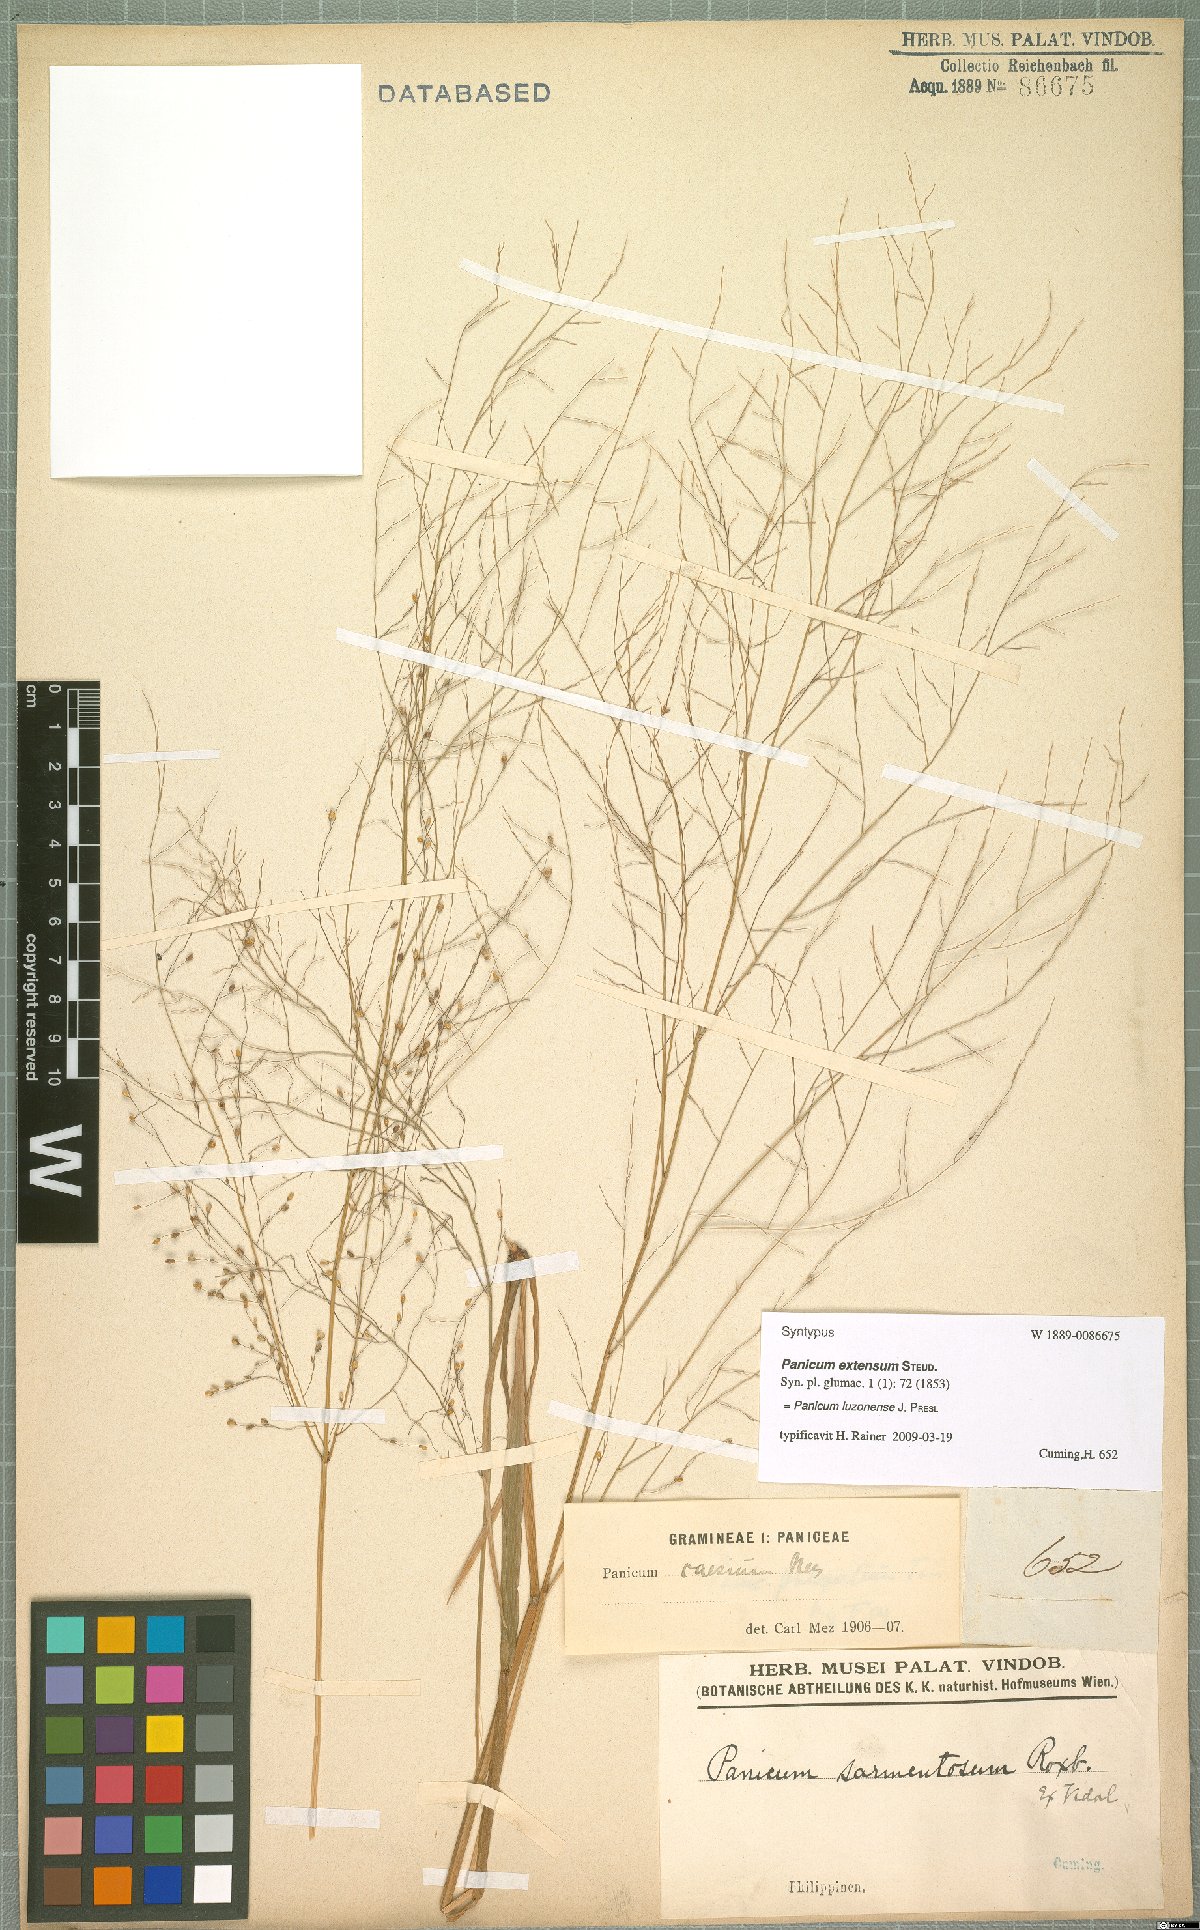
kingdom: Plantae
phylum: Tracheophyta
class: Liliopsida
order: Poales
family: Poaceae
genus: Panicum
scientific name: Panicum luzonense
